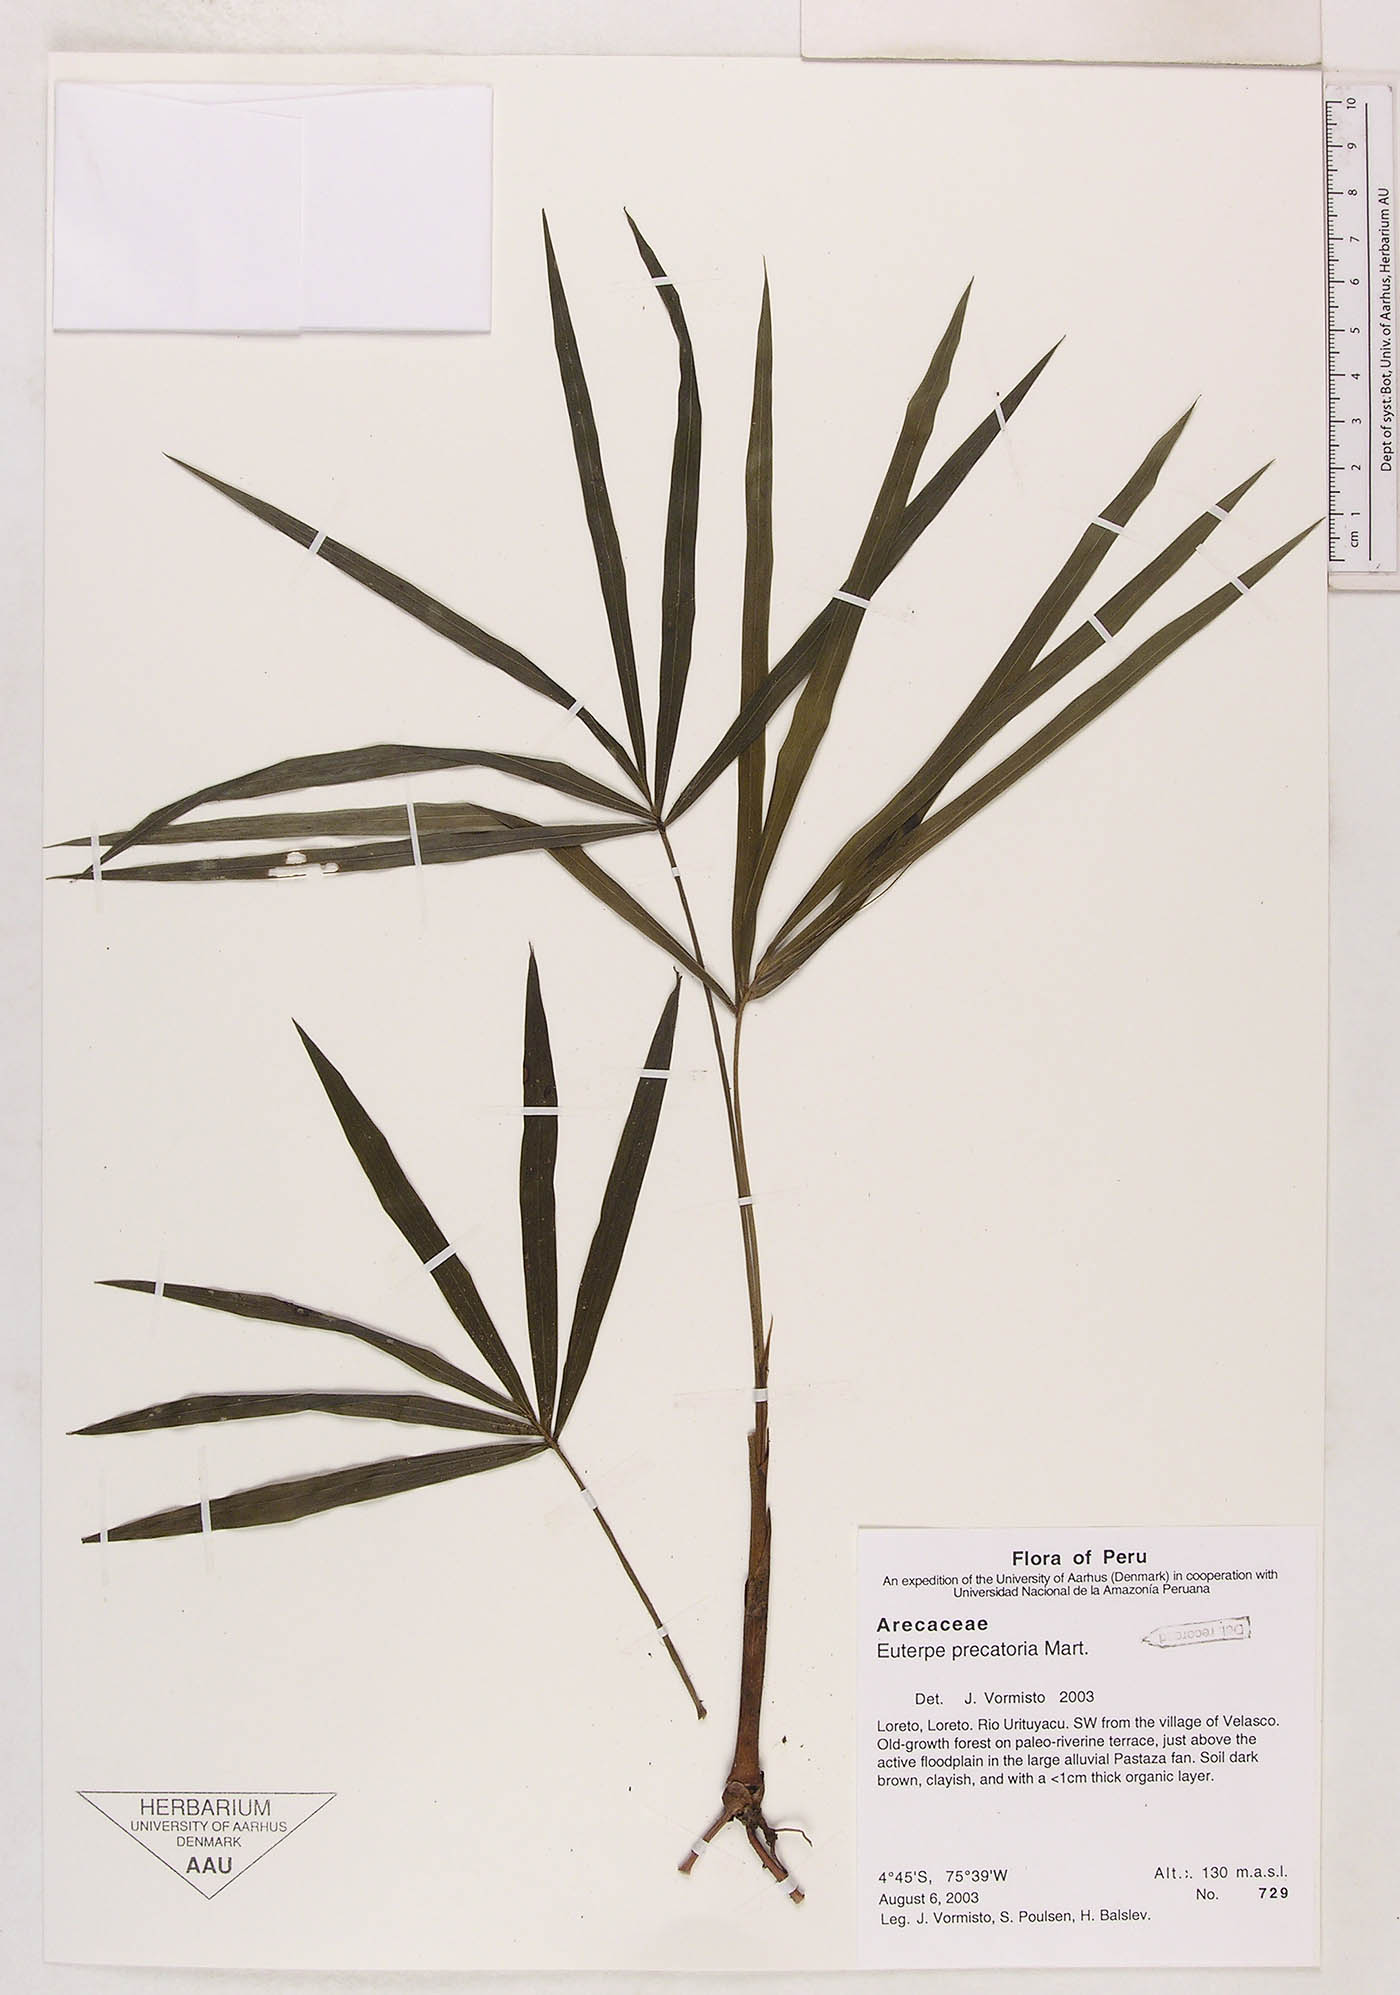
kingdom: Plantae
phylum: Tracheophyta
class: Liliopsida
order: Arecales
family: Arecaceae
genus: Euterpe
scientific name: Euterpe precatoria
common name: Mountain-cabbage
